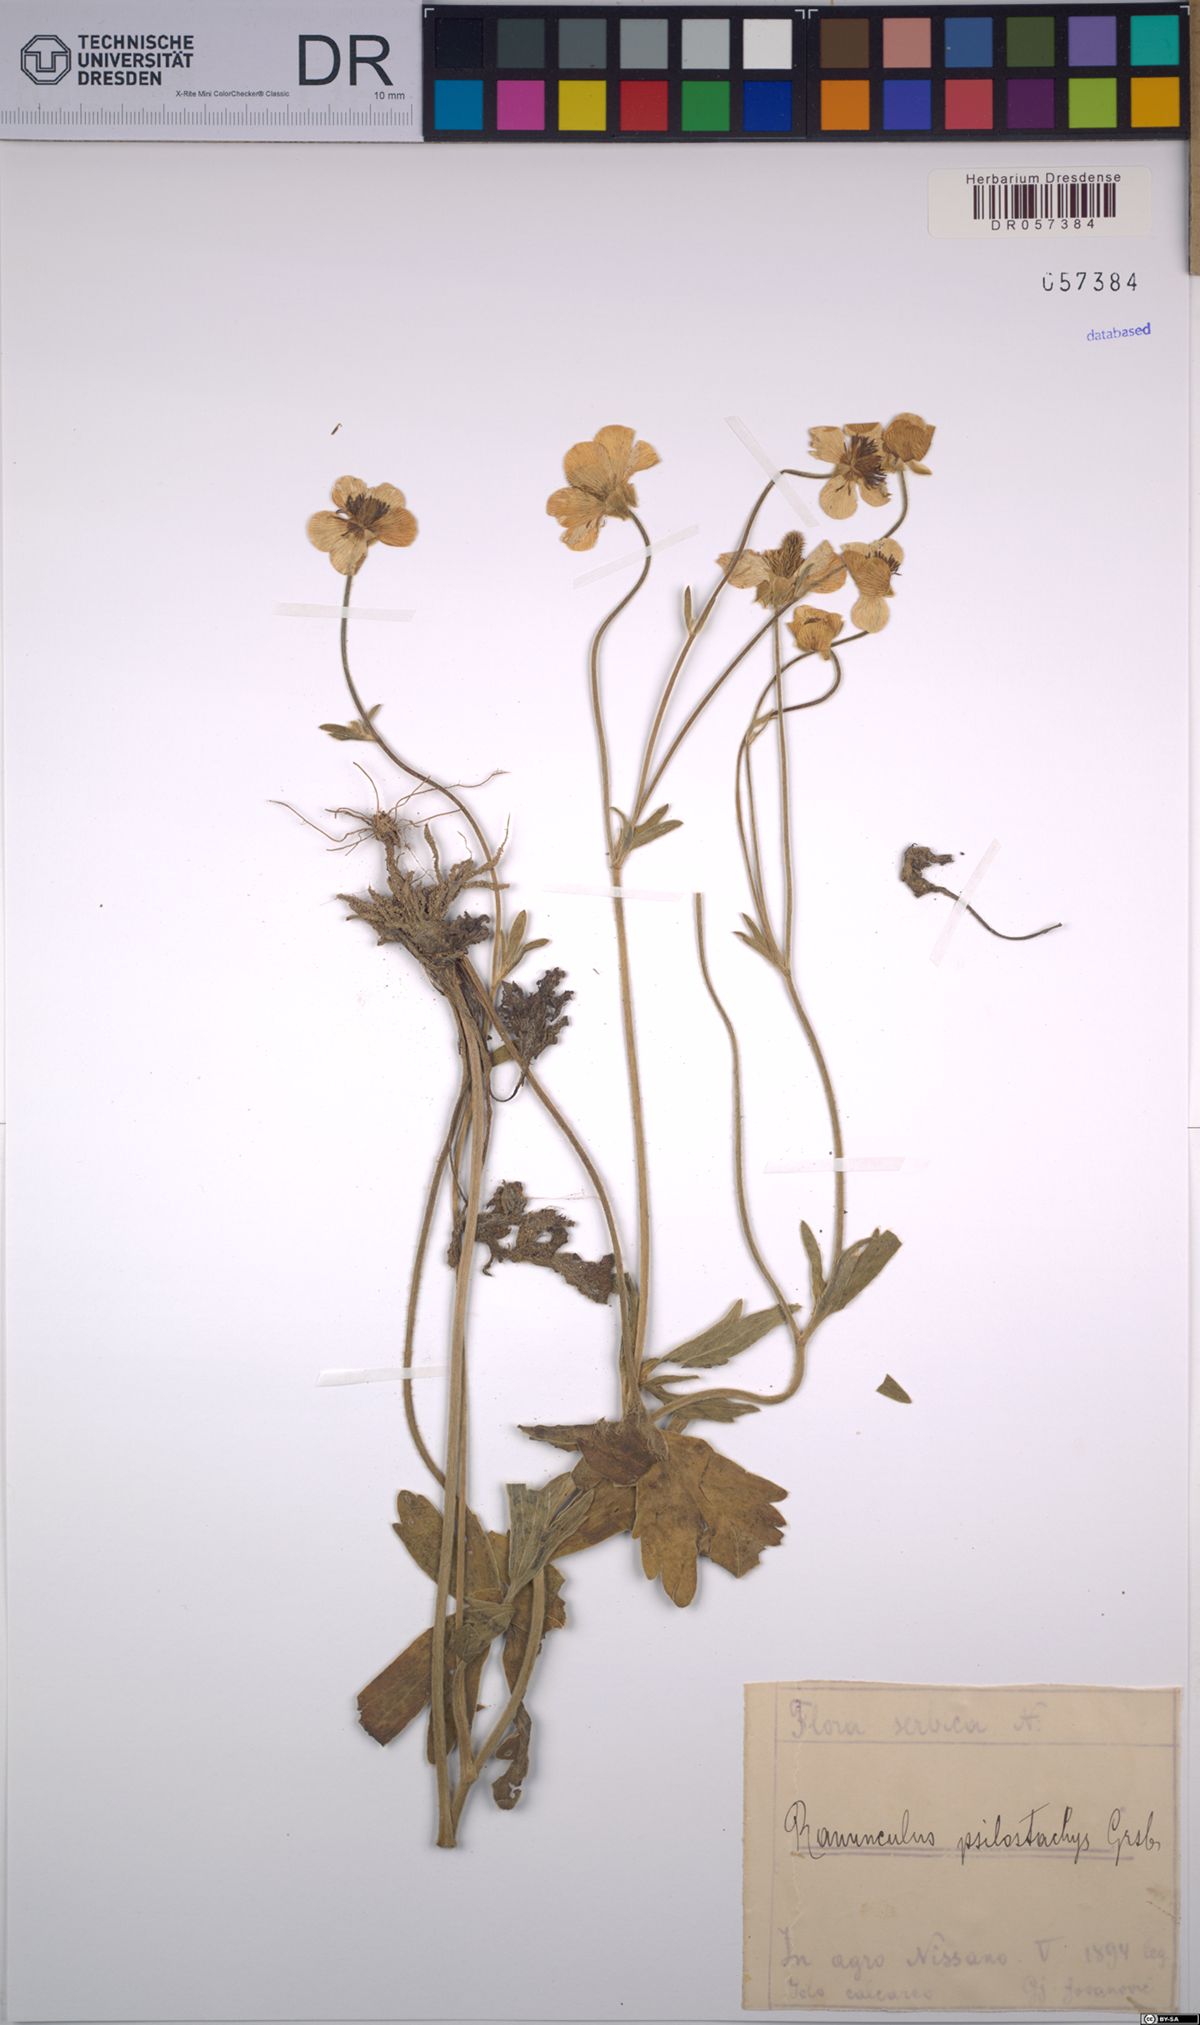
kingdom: Plantae
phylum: Tracheophyta
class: Magnoliopsida
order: Ranunculales
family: Ranunculaceae
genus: Ranunculus
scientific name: Ranunculus psilostachys
